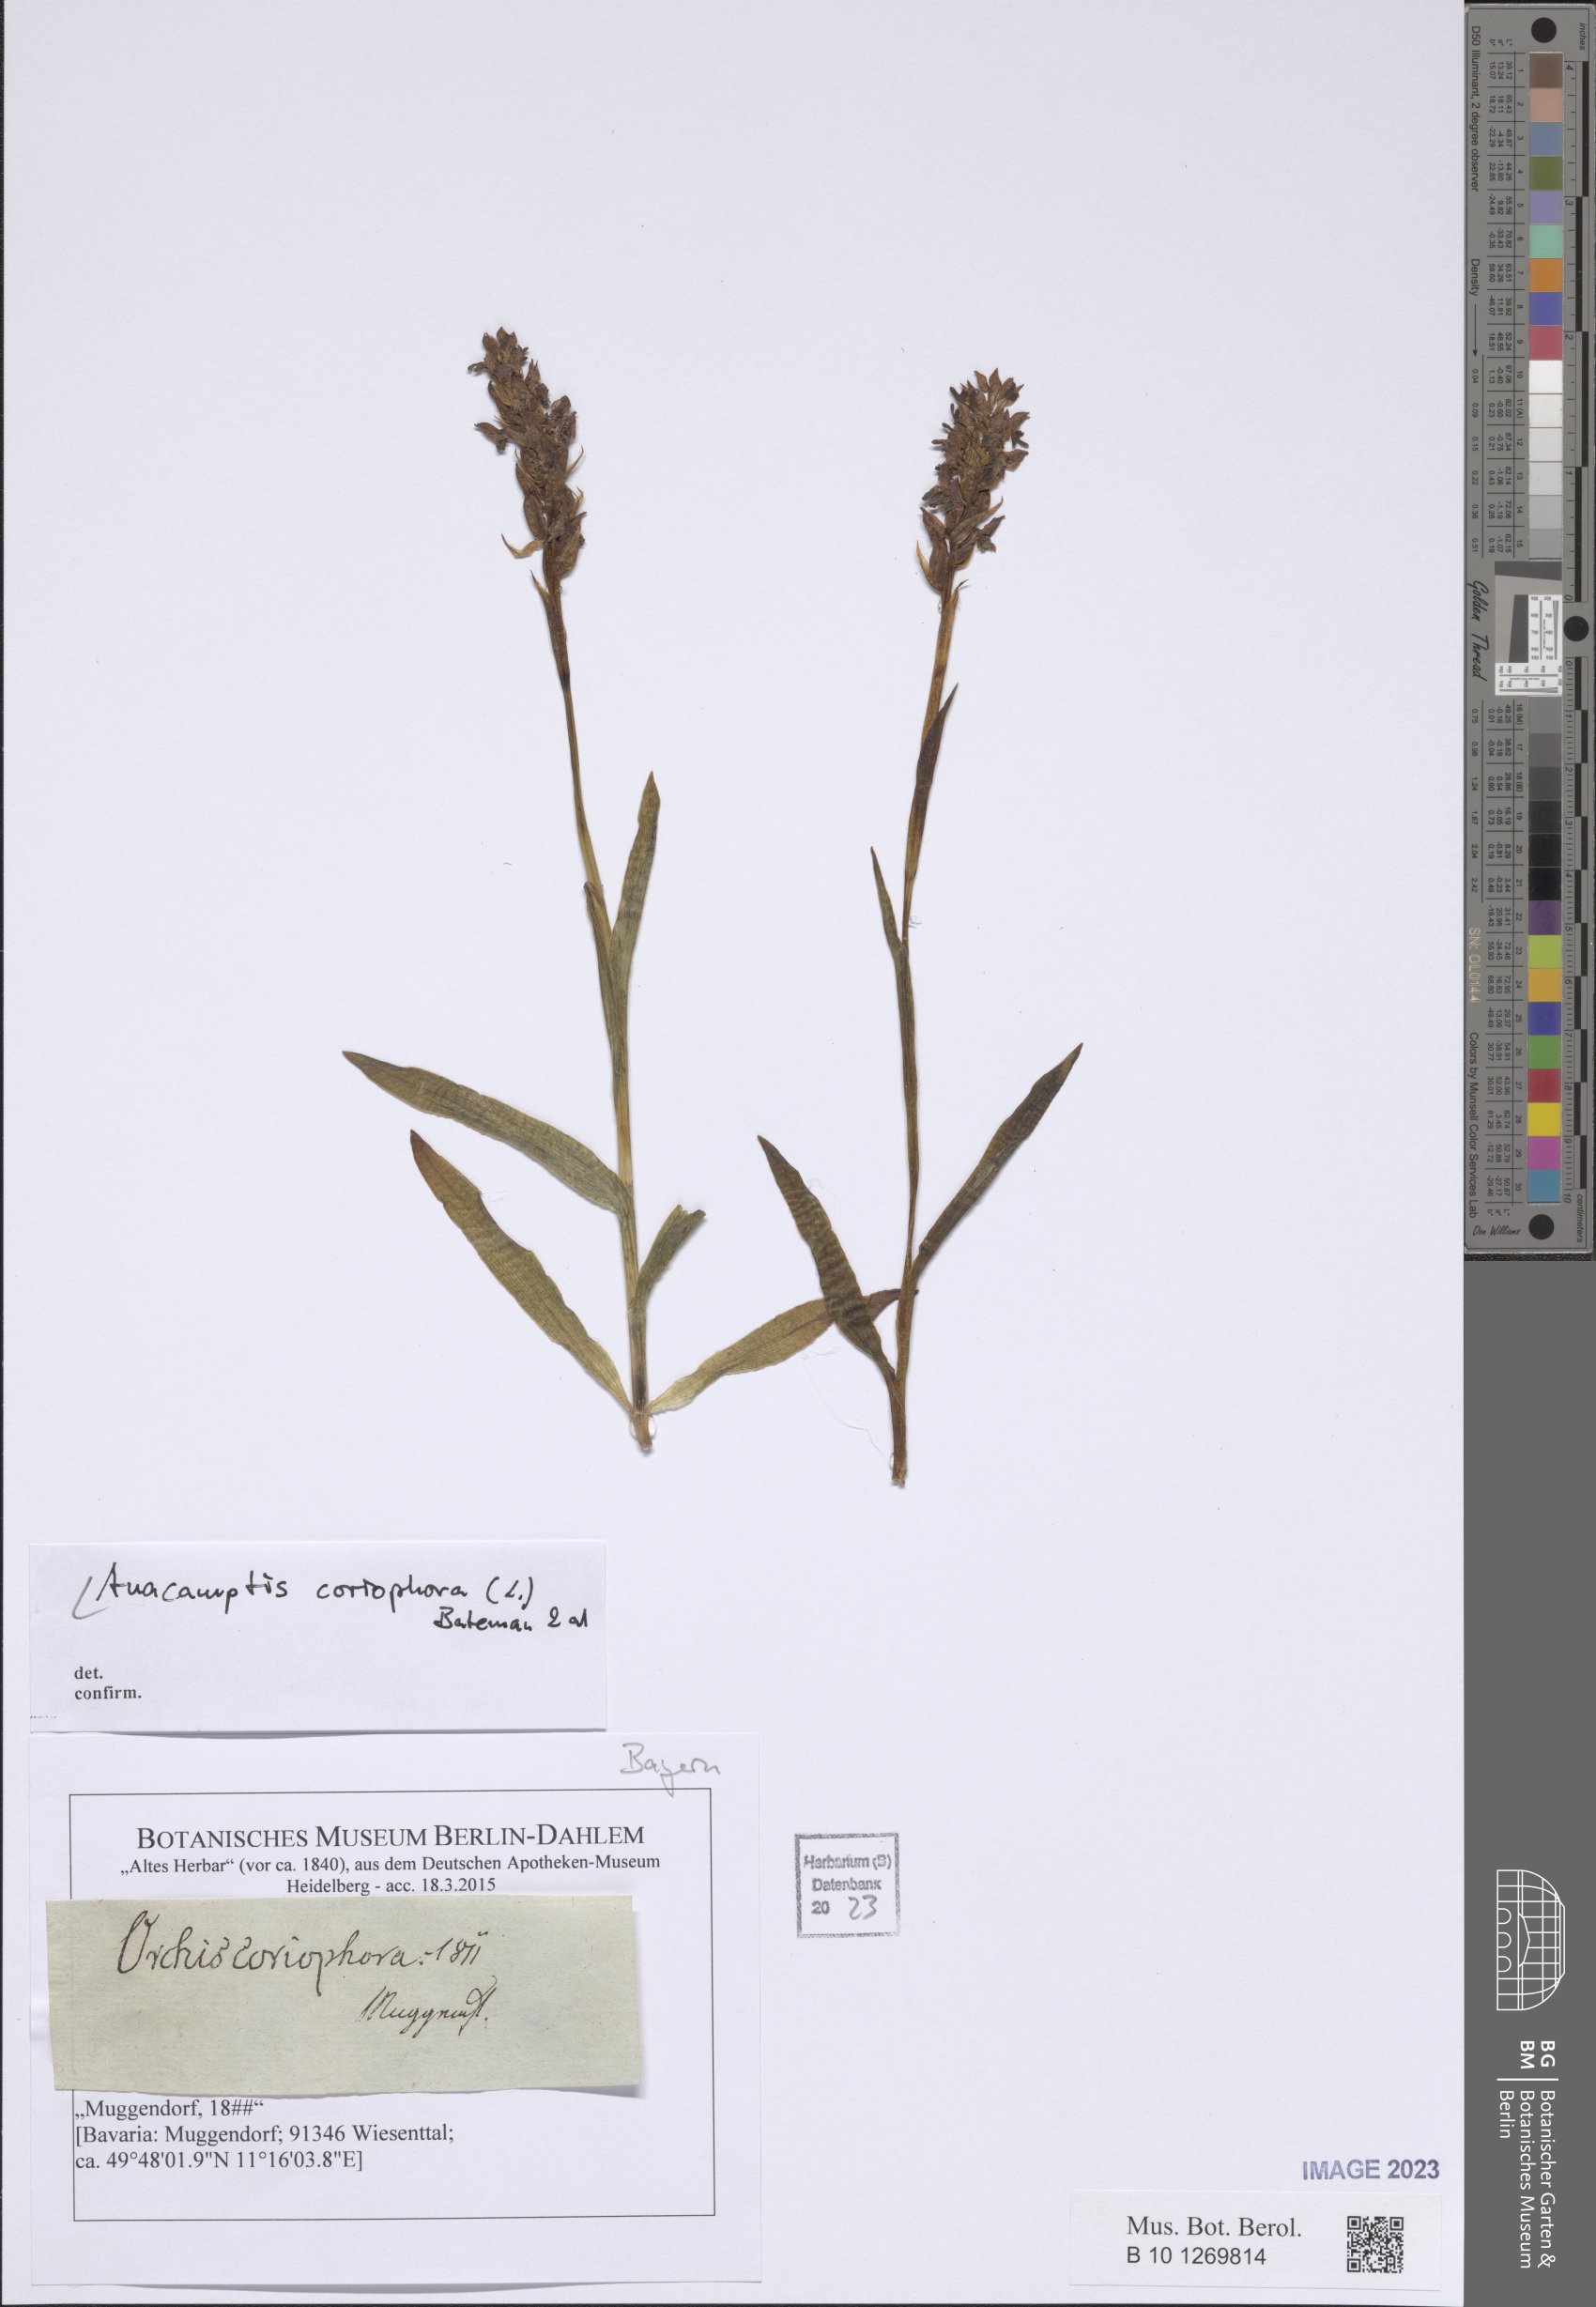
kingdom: Plantae
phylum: Tracheophyta
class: Liliopsida
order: Asparagales
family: Orchidaceae
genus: Anacamptis
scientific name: Anacamptis coriophora
